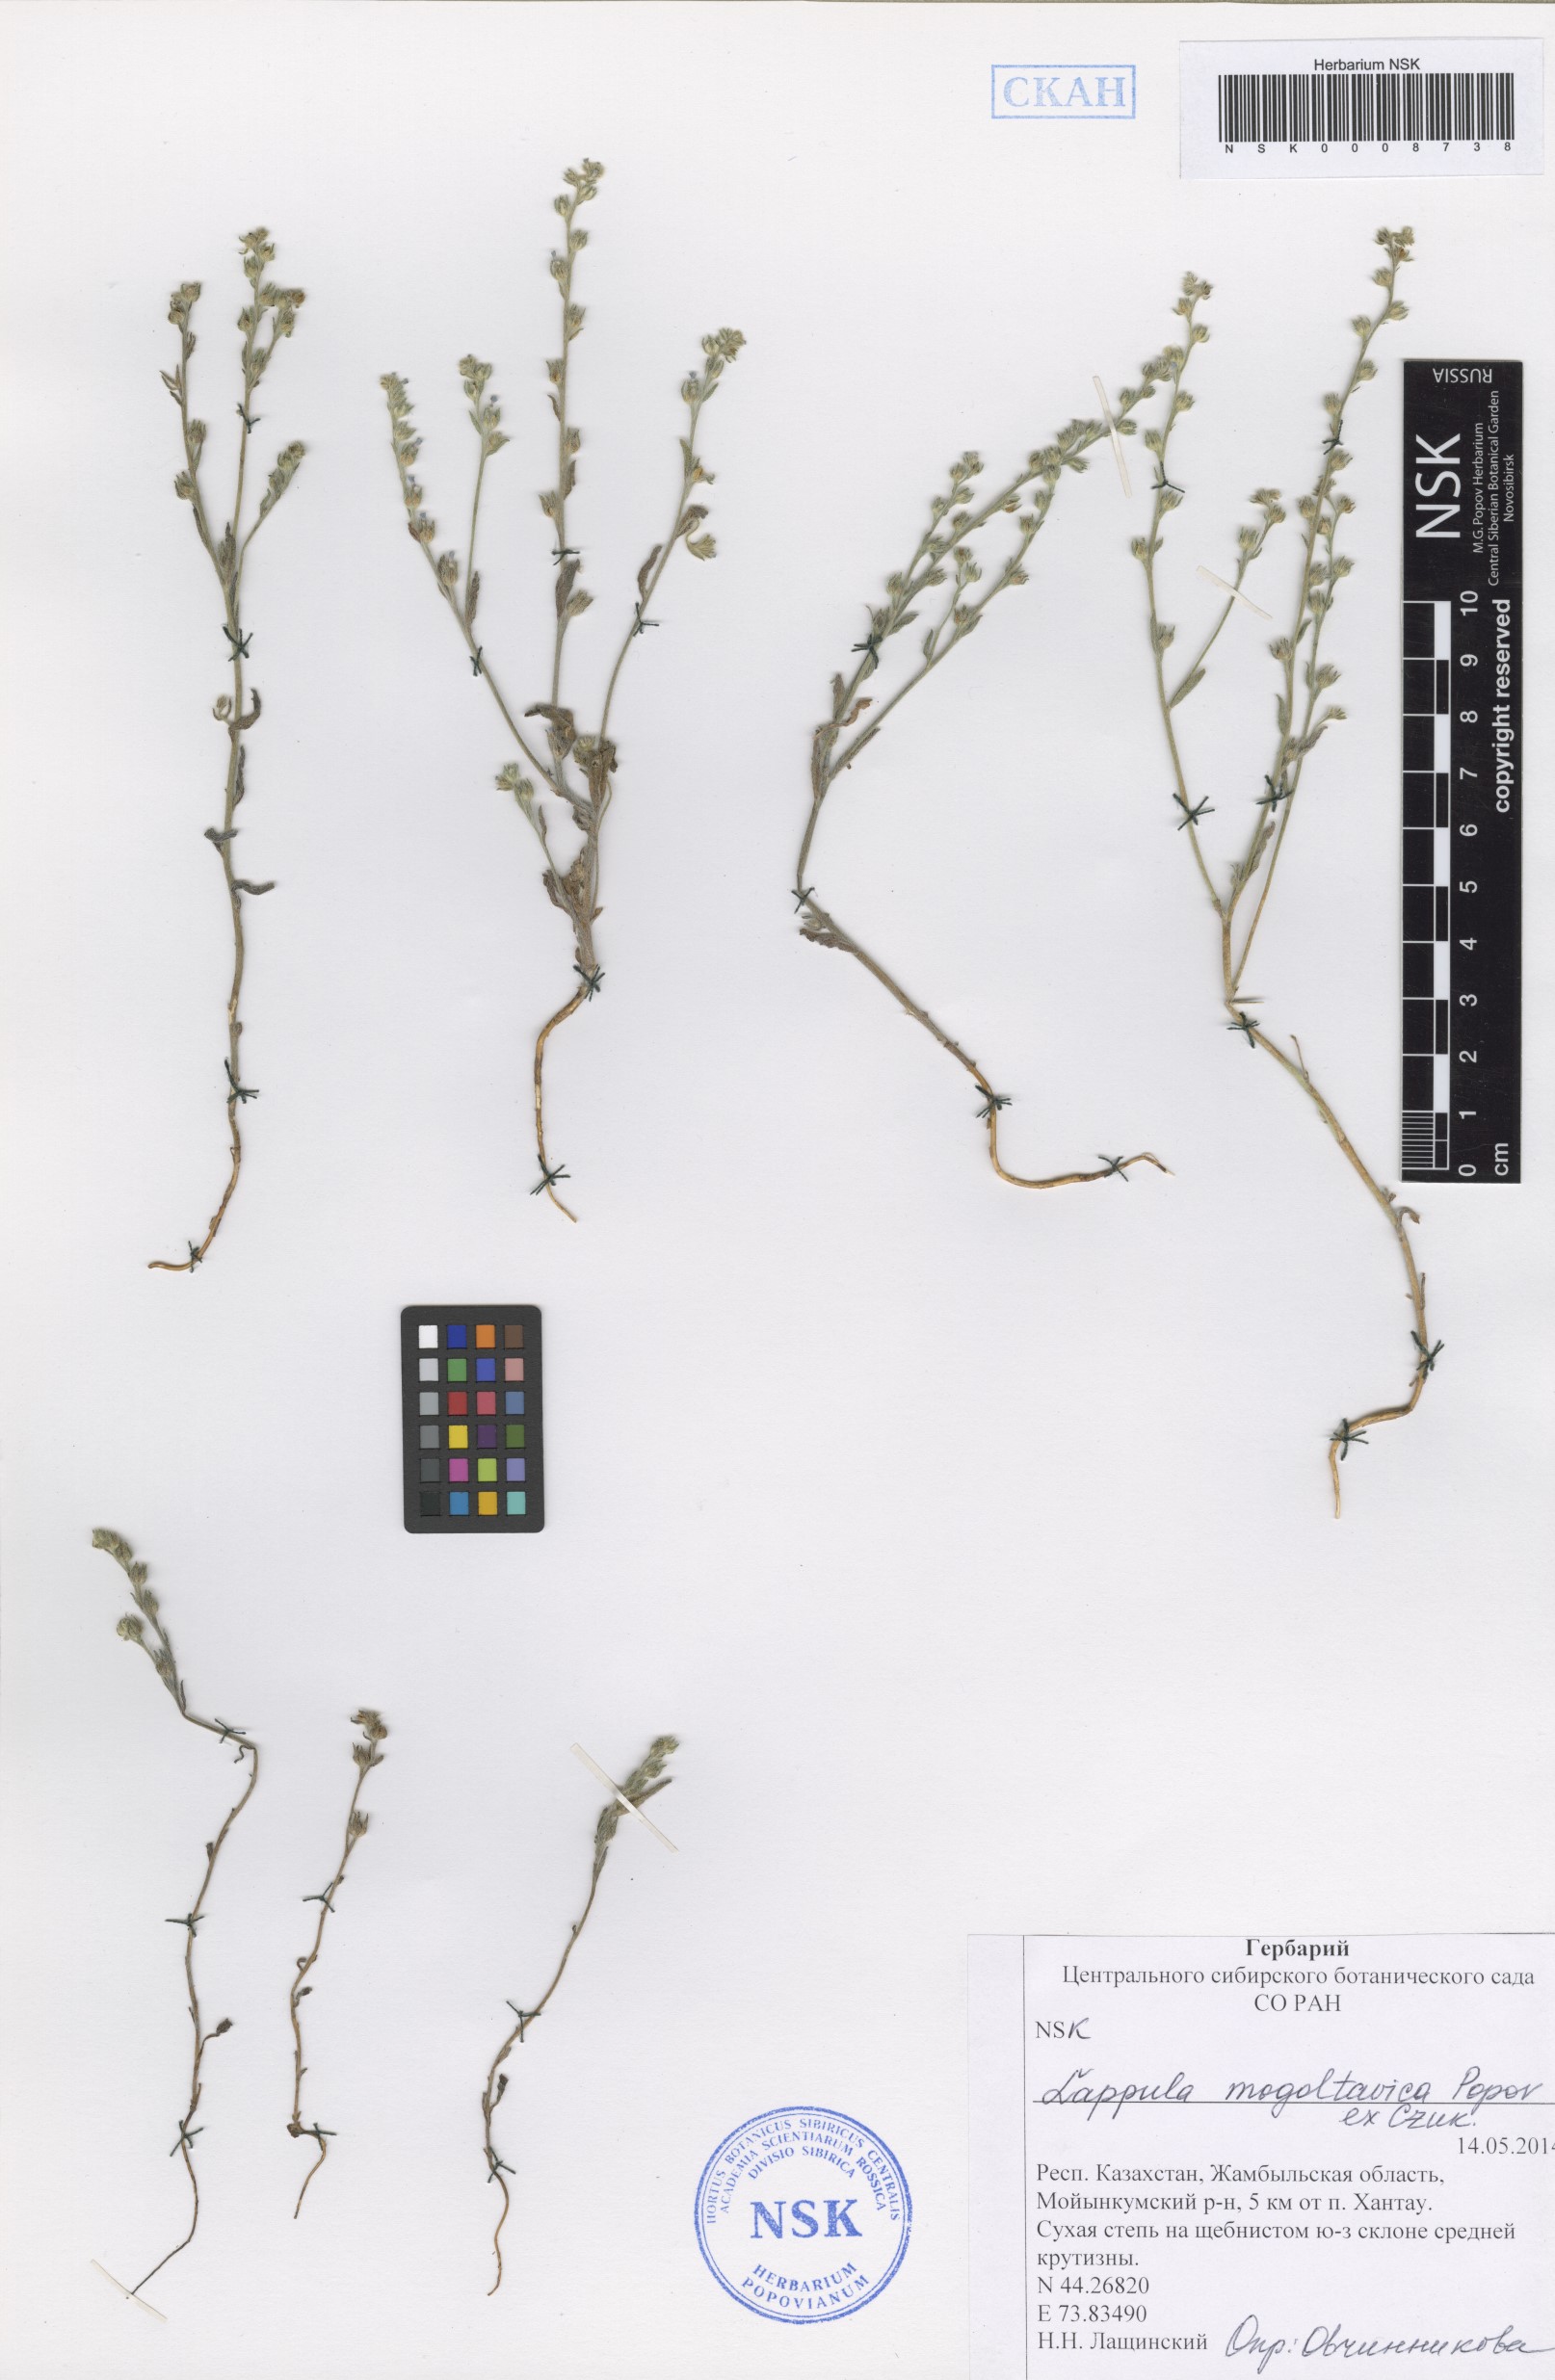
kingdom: Plantae
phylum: Tracheophyta
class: Magnoliopsida
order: Boraginales
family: Boraginaceae
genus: Lappula
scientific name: Lappula mogoltavica
